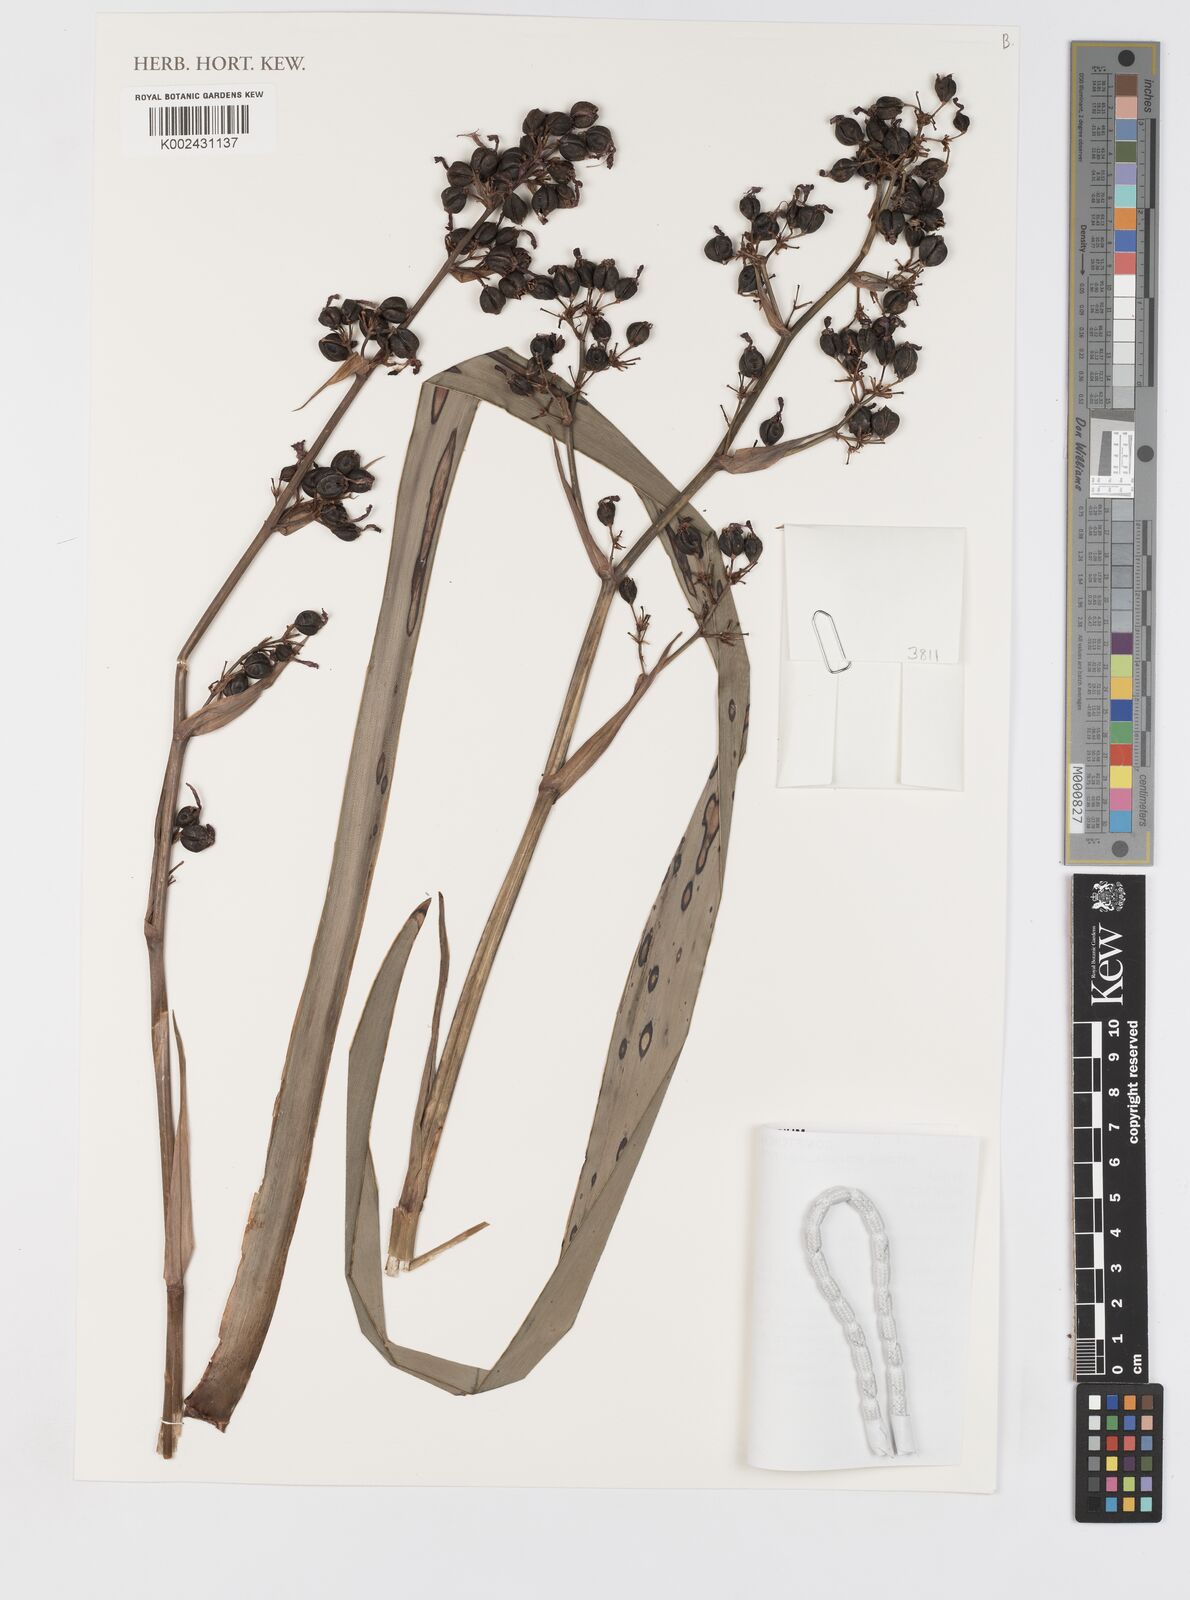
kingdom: Plantae
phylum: Tracheophyta
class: Liliopsida
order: Asparagales
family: Iridaceae
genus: Aristea
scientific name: Aristea latifolia
